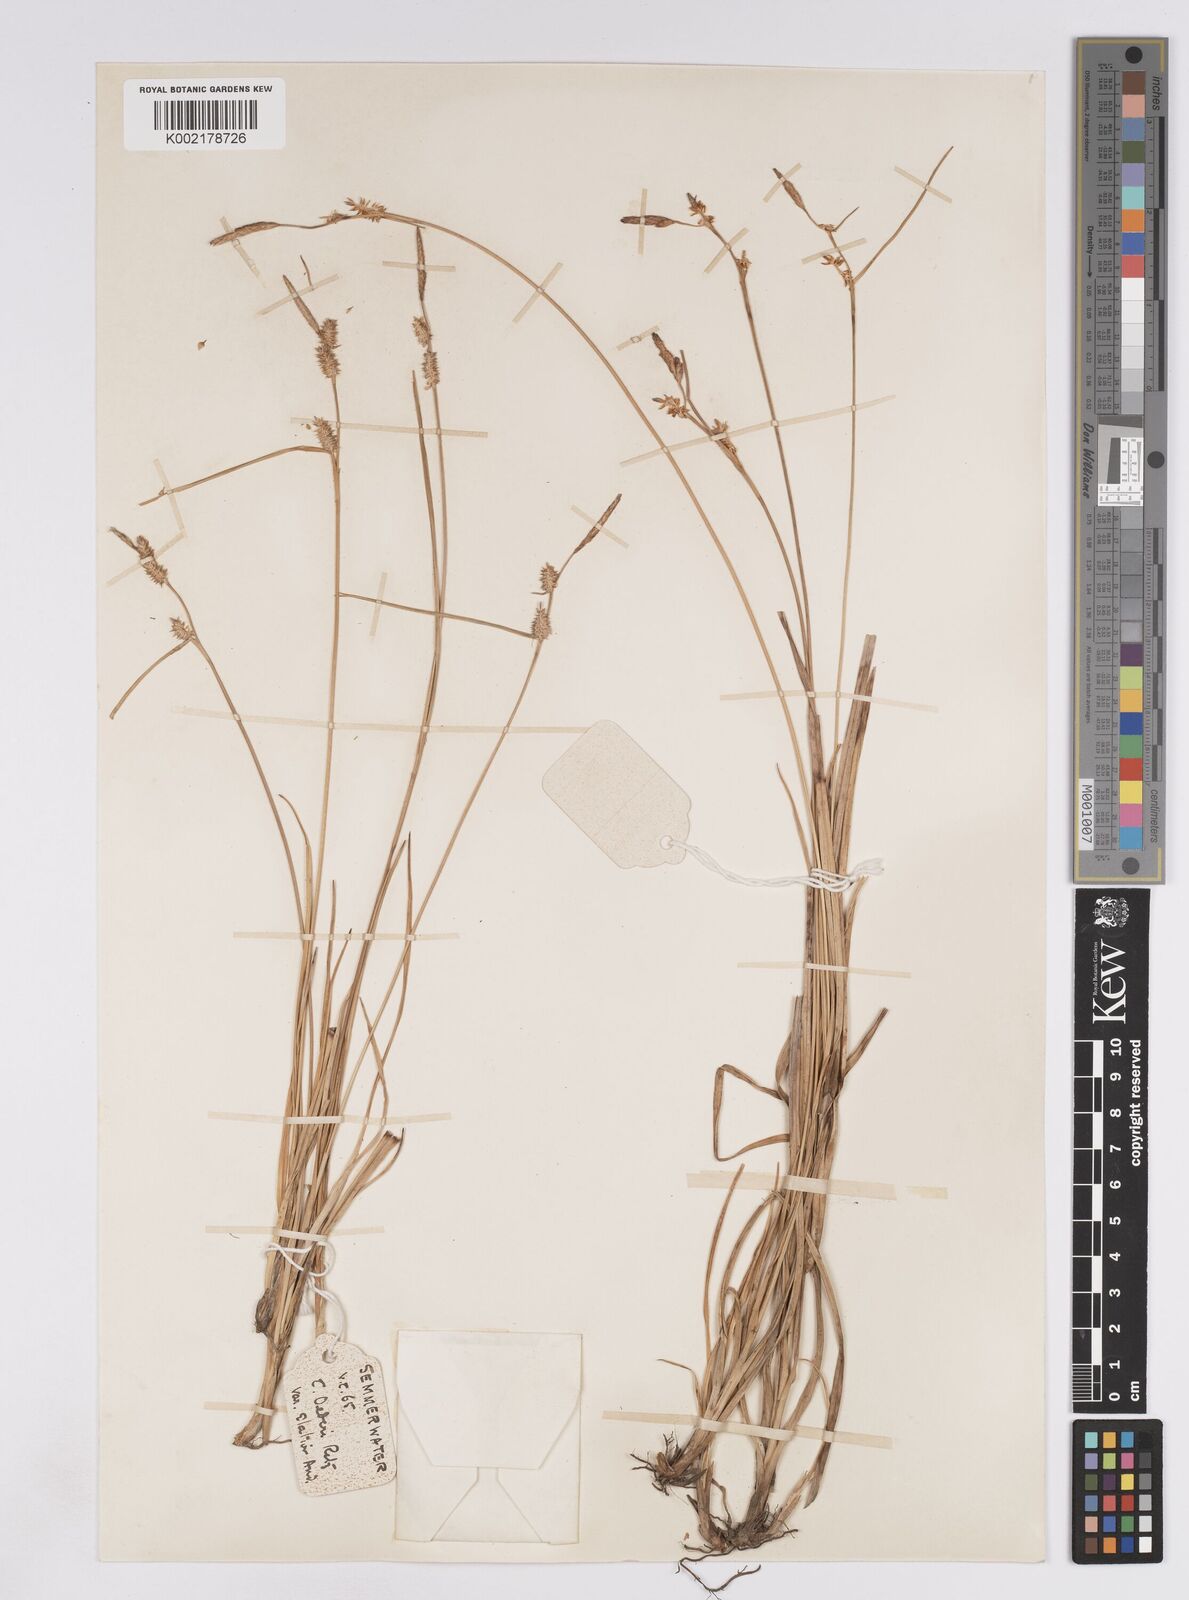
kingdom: Plantae
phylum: Tracheophyta
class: Liliopsida
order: Poales
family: Cyperaceae
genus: Carex
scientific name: Carex lepidocarpa
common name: Long-stalked yellow-sedge
